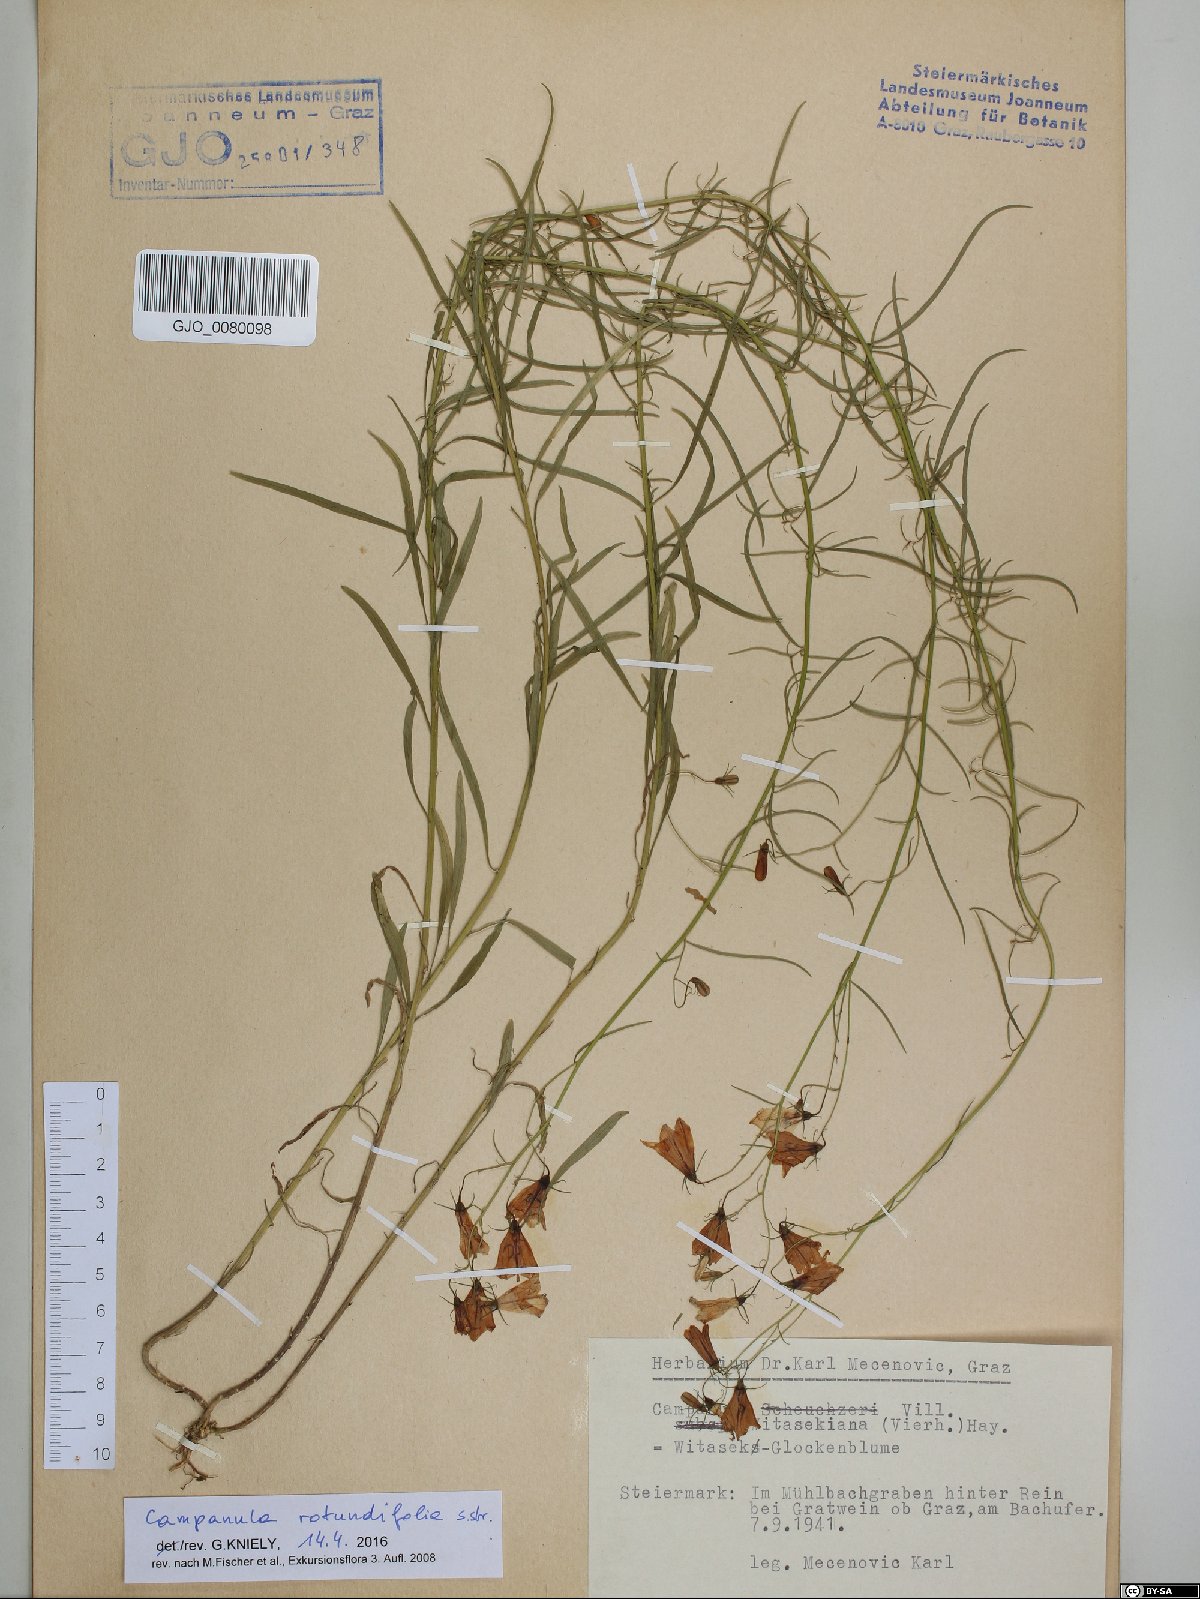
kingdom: Plantae
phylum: Tracheophyta
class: Magnoliopsida
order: Asterales
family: Campanulaceae
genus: Campanula
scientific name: Campanula rotundifolia
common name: Harebell
